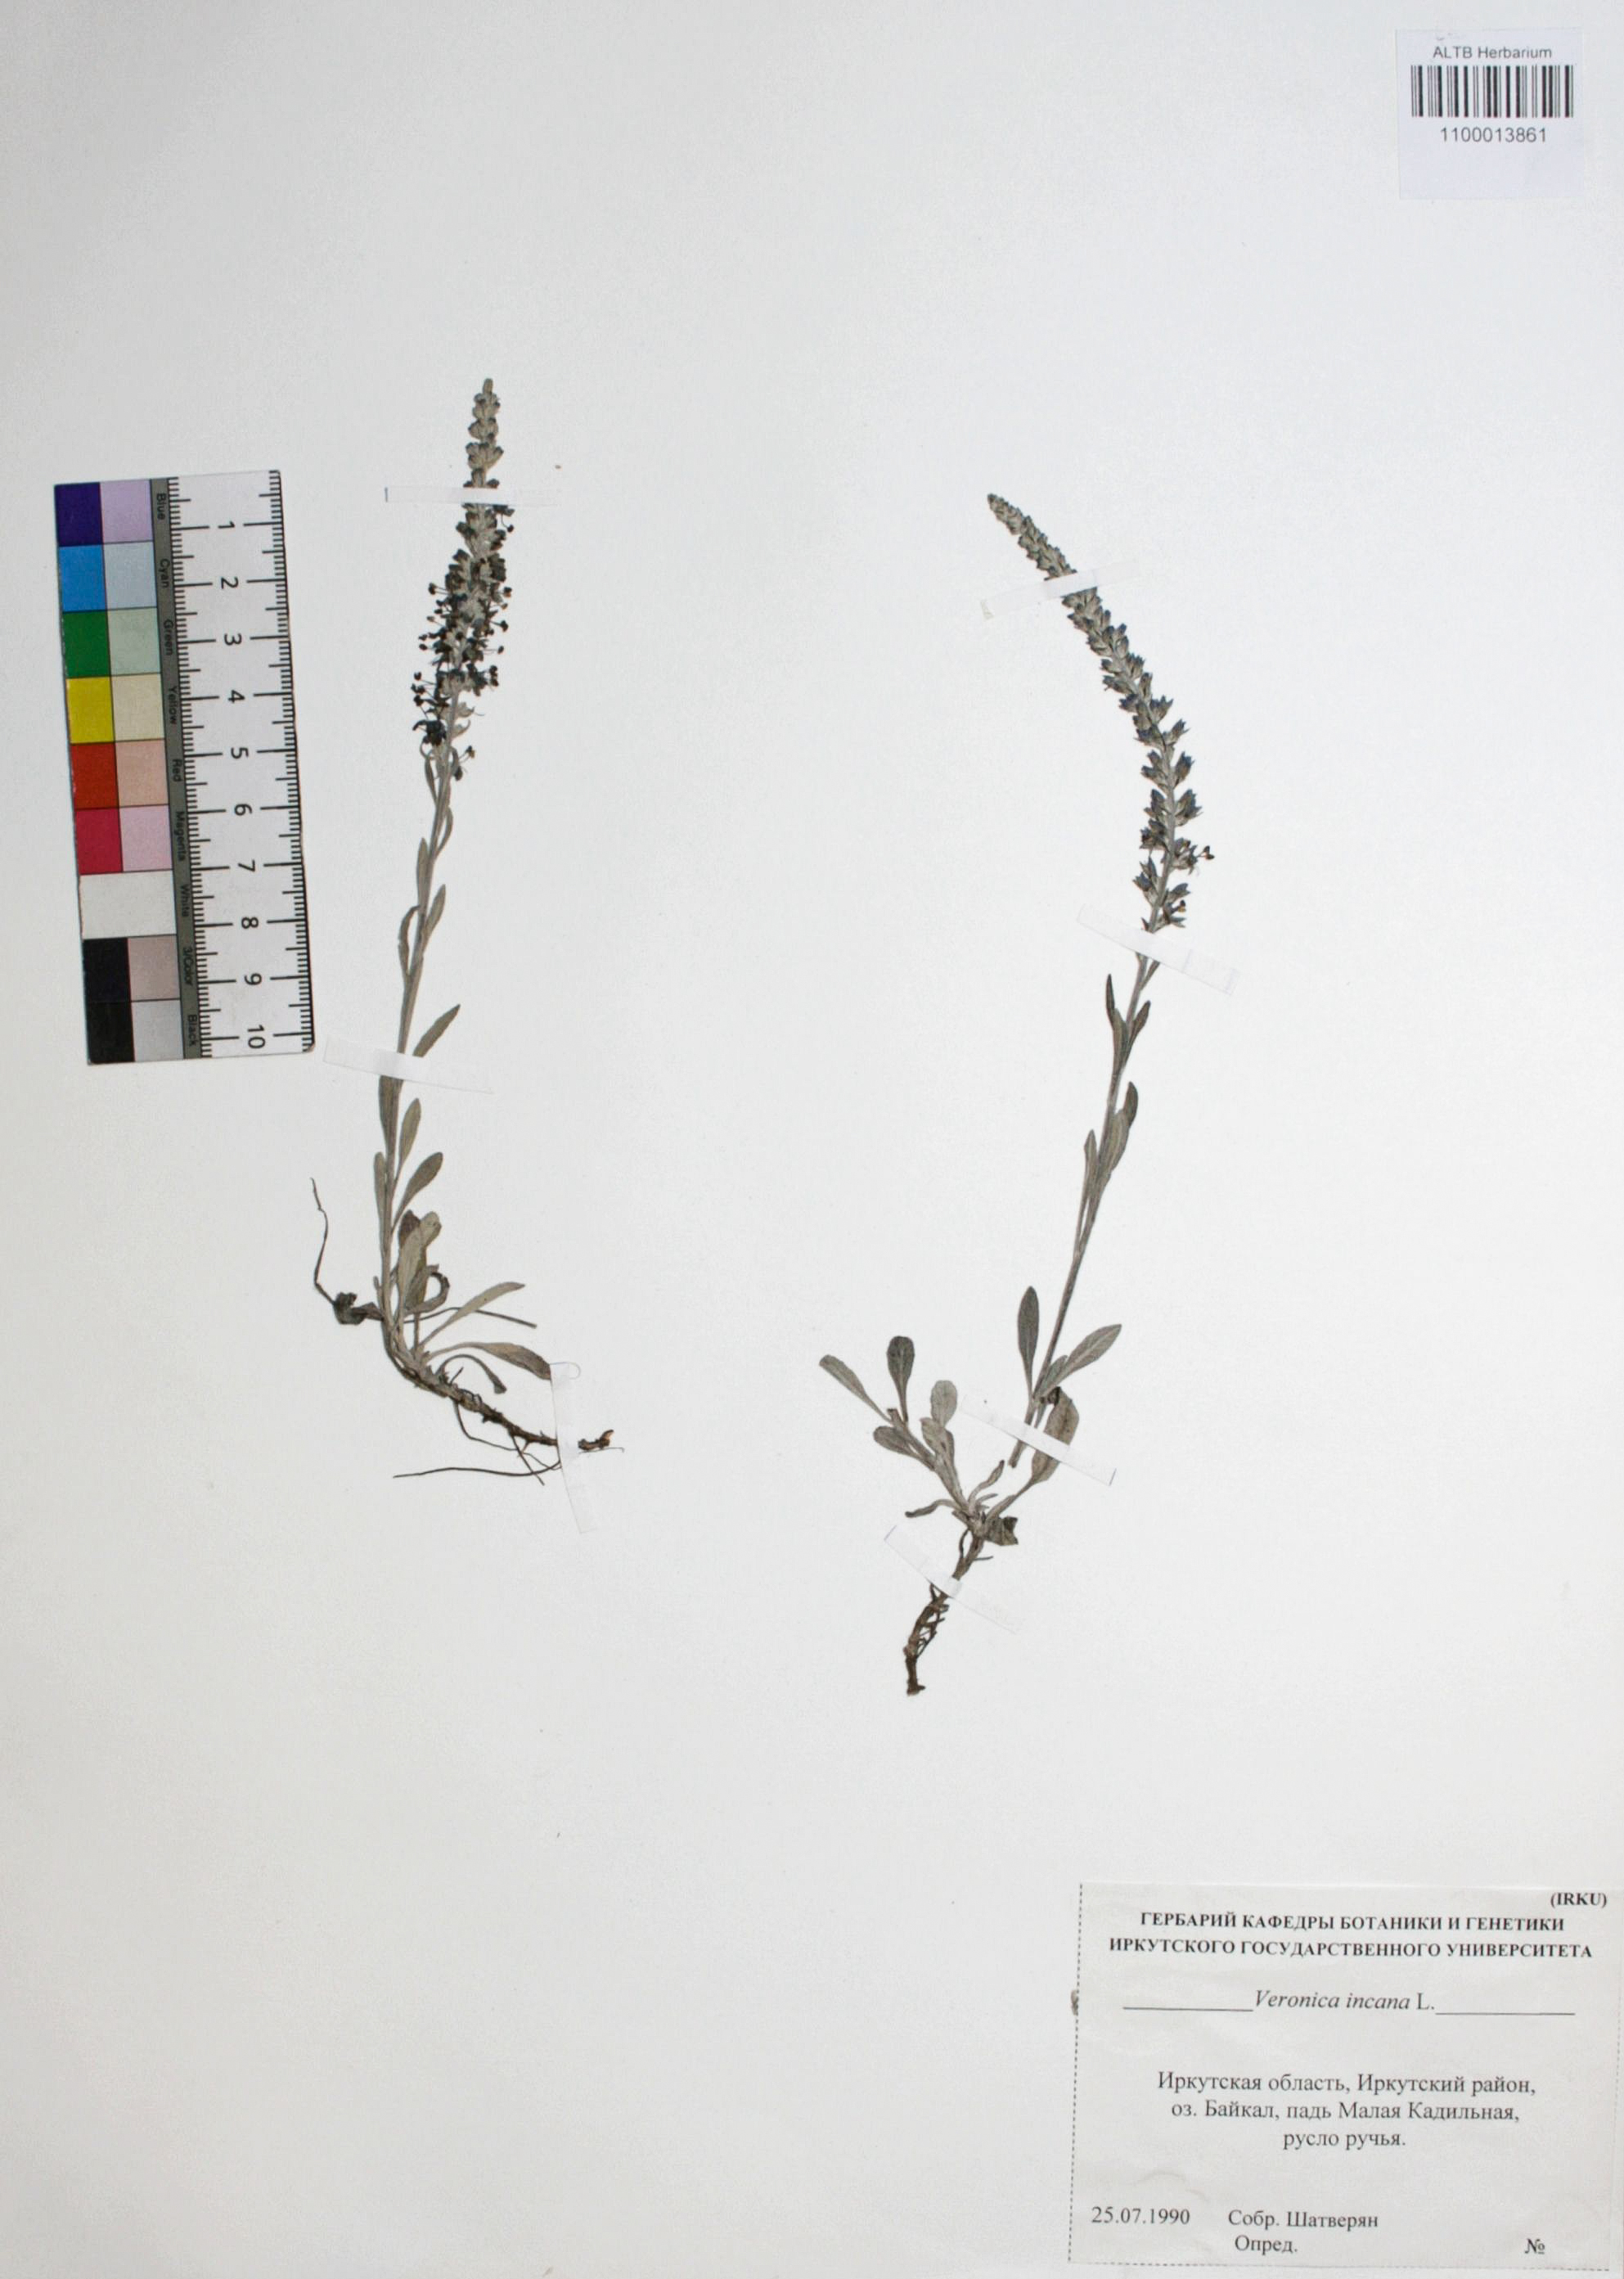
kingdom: Plantae
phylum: Tracheophyta
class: Magnoliopsida
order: Lamiales
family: Plantaginaceae
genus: Veronica
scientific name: Veronica incana
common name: Silver speedwell
